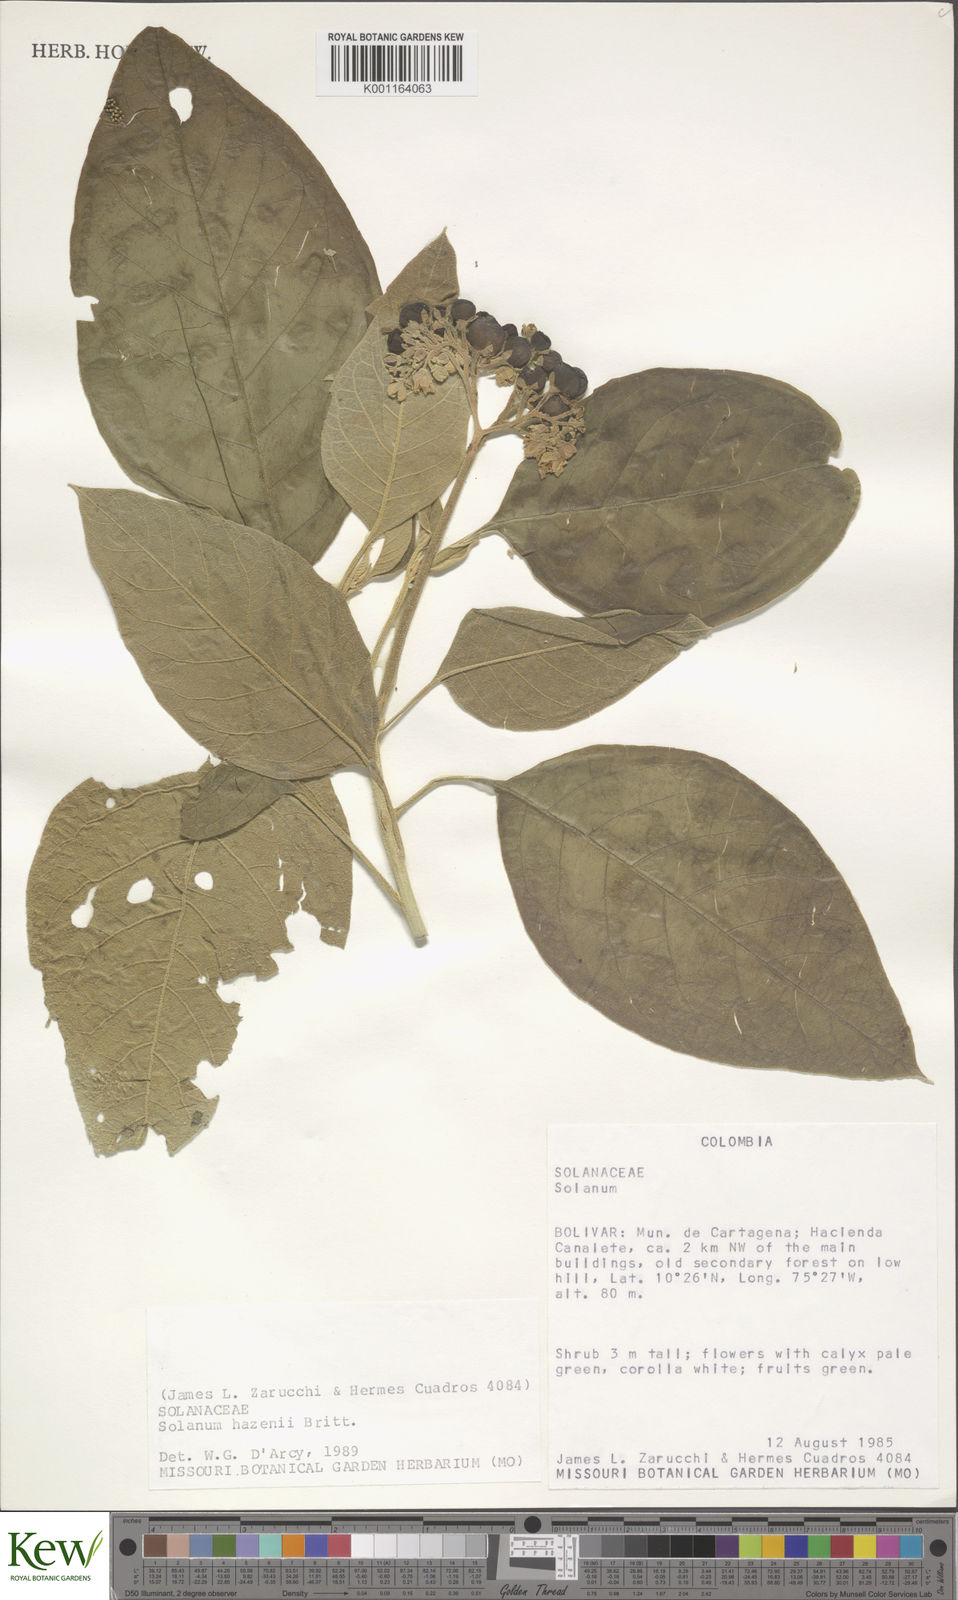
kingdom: Plantae
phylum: Tracheophyta
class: Magnoliopsida
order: Solanales
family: Solanaceae
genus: Solanum
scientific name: Solanum hazenii
